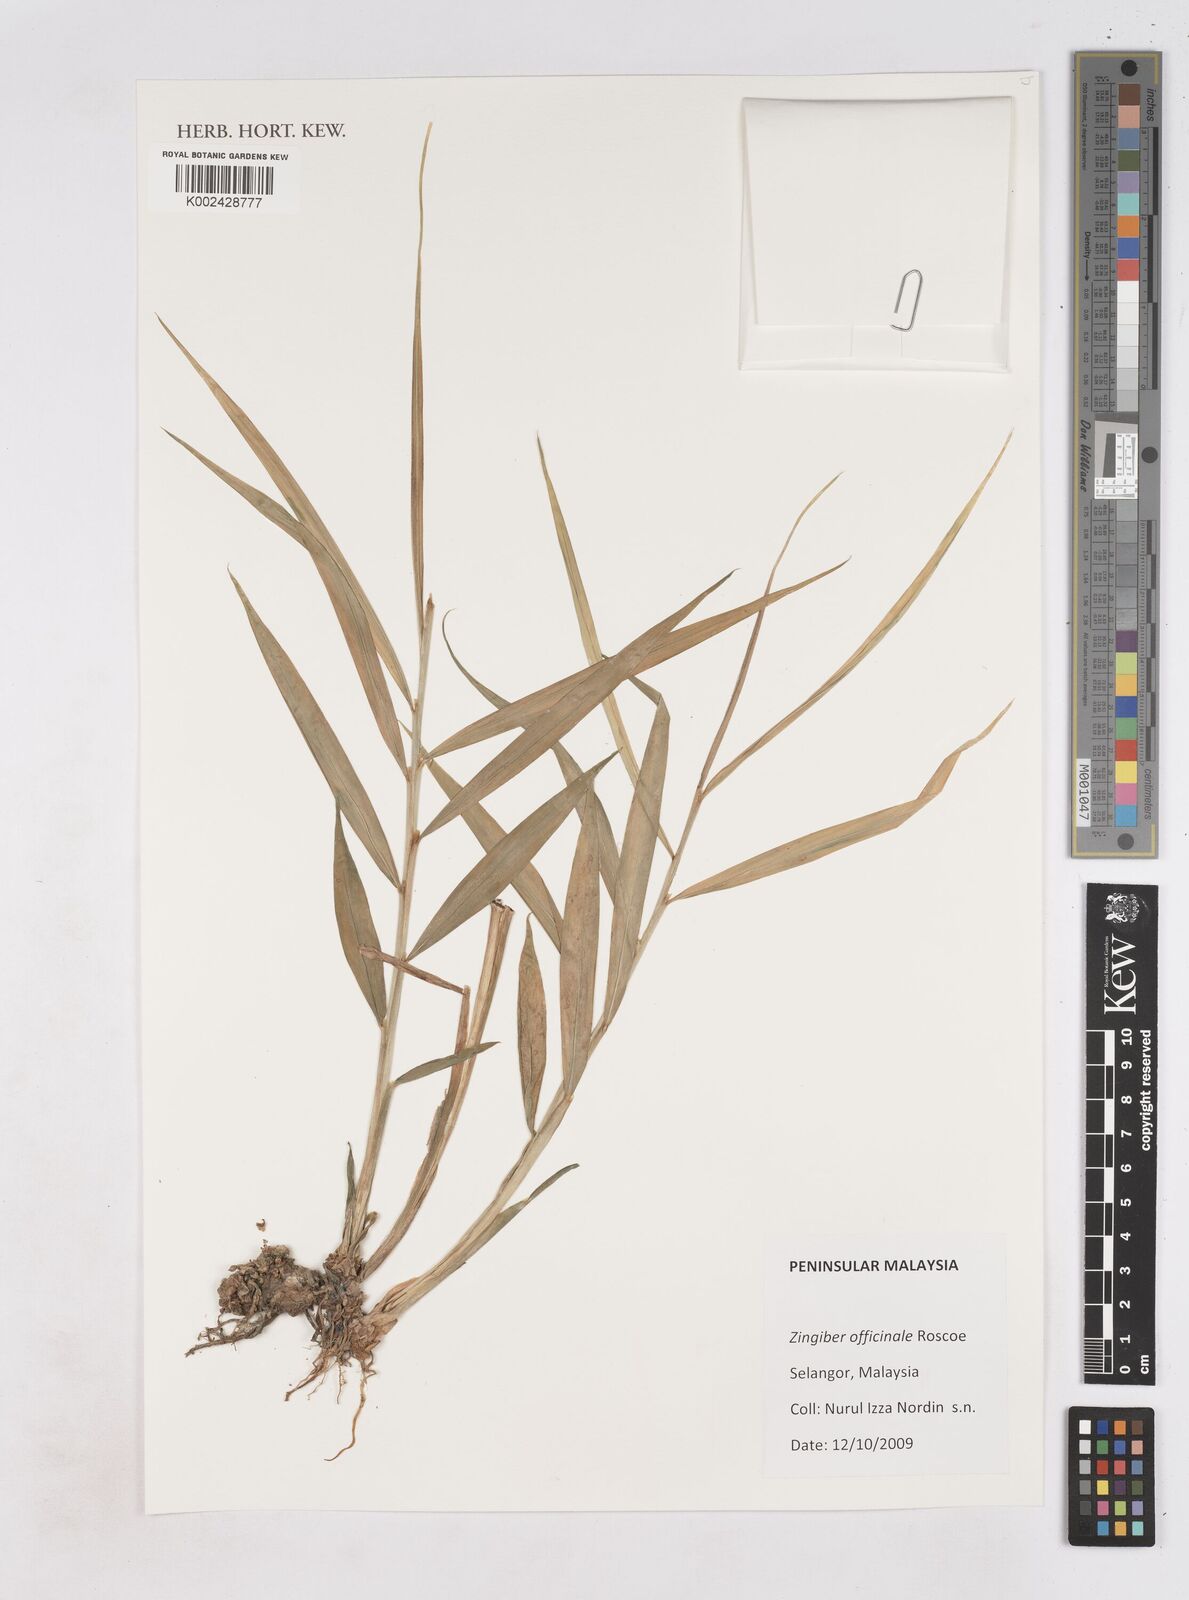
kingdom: Plantae
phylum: Tracheophyta
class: Liliopsida
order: Zingiberales
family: Zingiberaceae
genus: Zingiber
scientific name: Zingiber officinale
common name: Ginger
